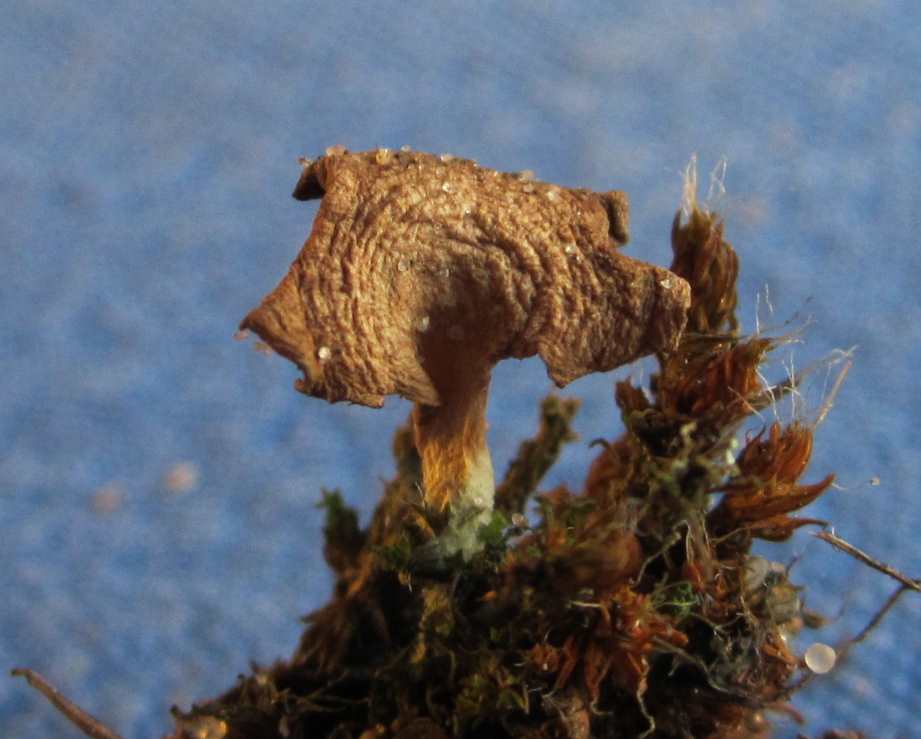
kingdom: Fungi
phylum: Basidiomycota
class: Agaricomycetes
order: Agaricales
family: Hygrophoraceae
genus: Arrhenia
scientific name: Arrhenia spathulata
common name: skæv fontænehat
